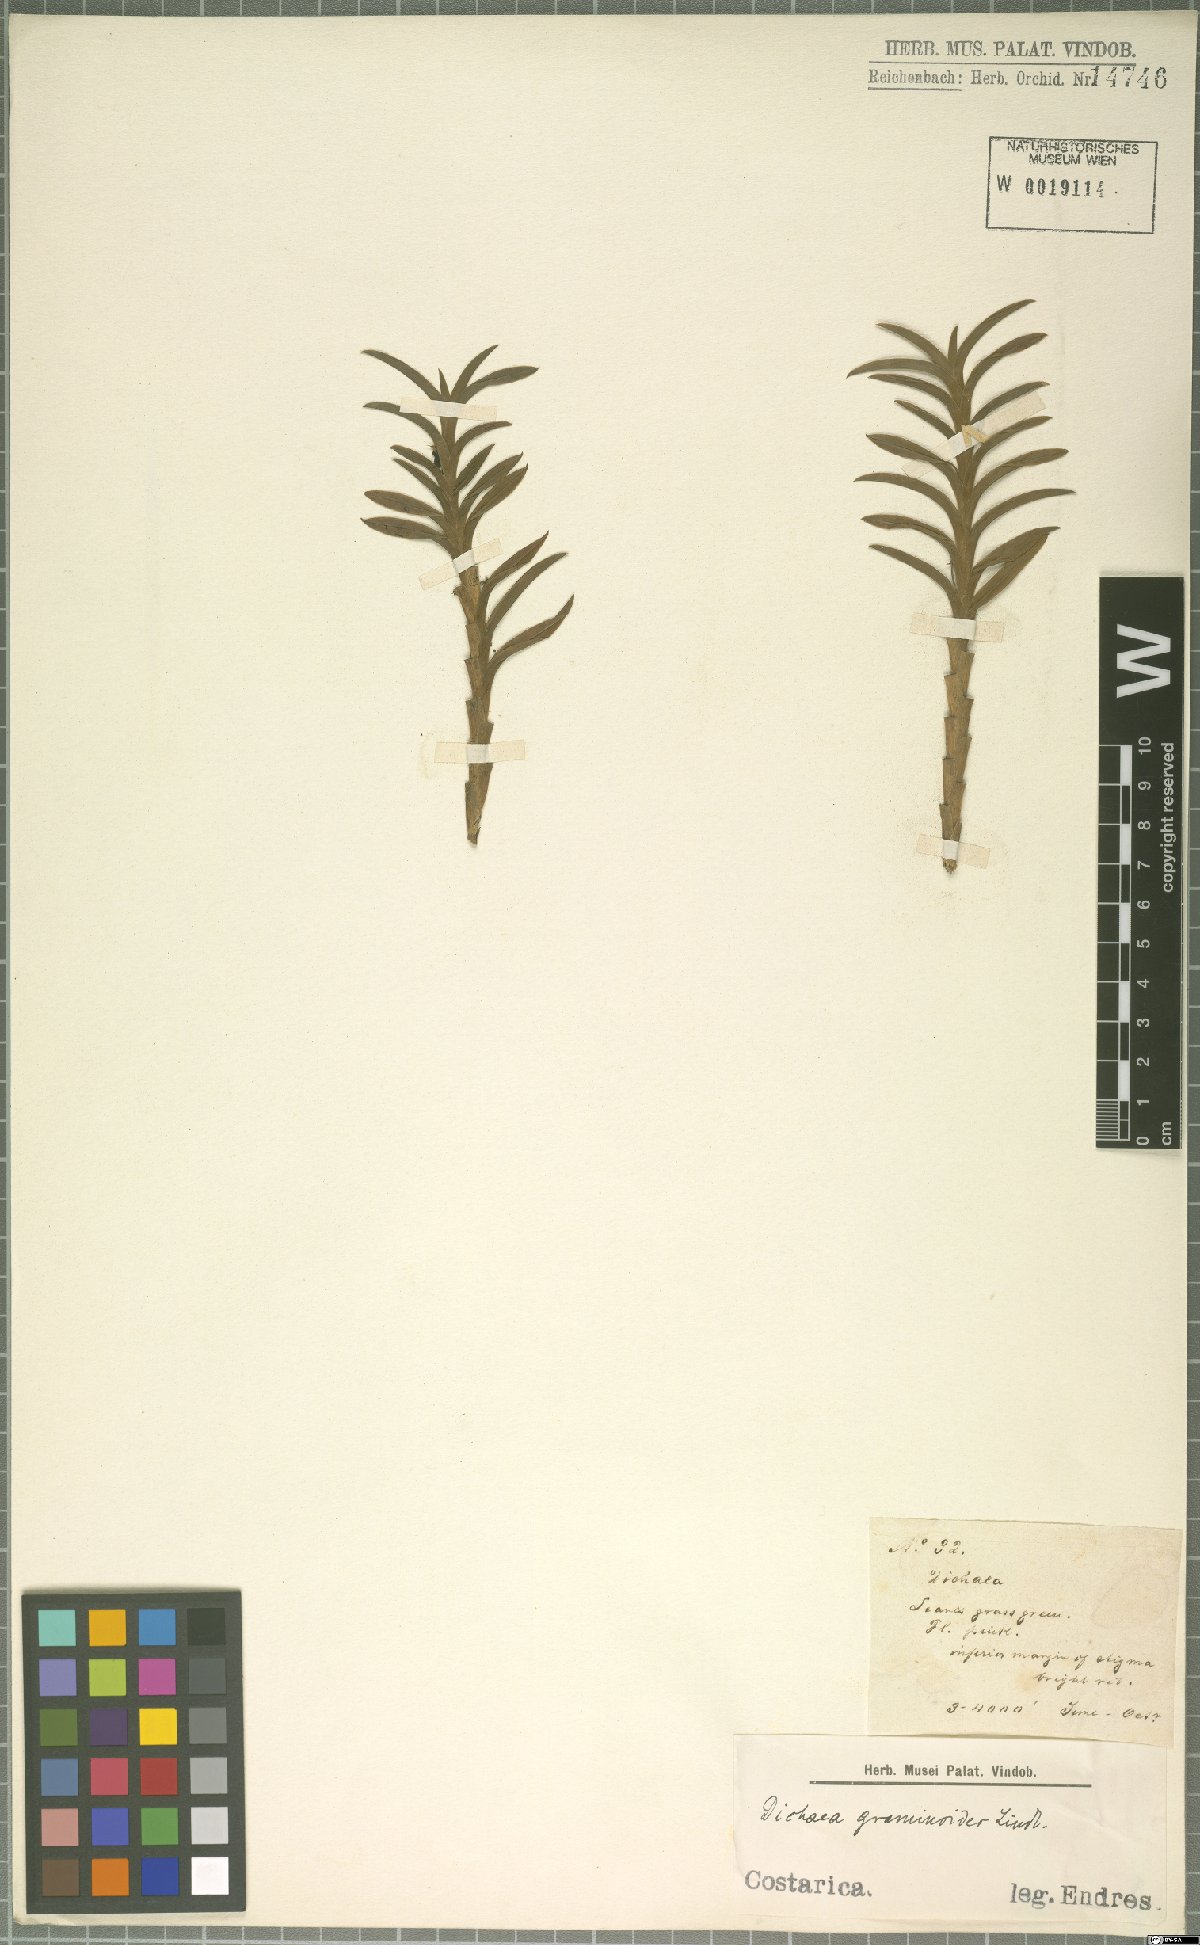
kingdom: Plantae
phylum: Tracheophyta
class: Liliopsida
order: Asparagales
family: Orchidaceae
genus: Dichaea
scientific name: Dichaea graminoides
